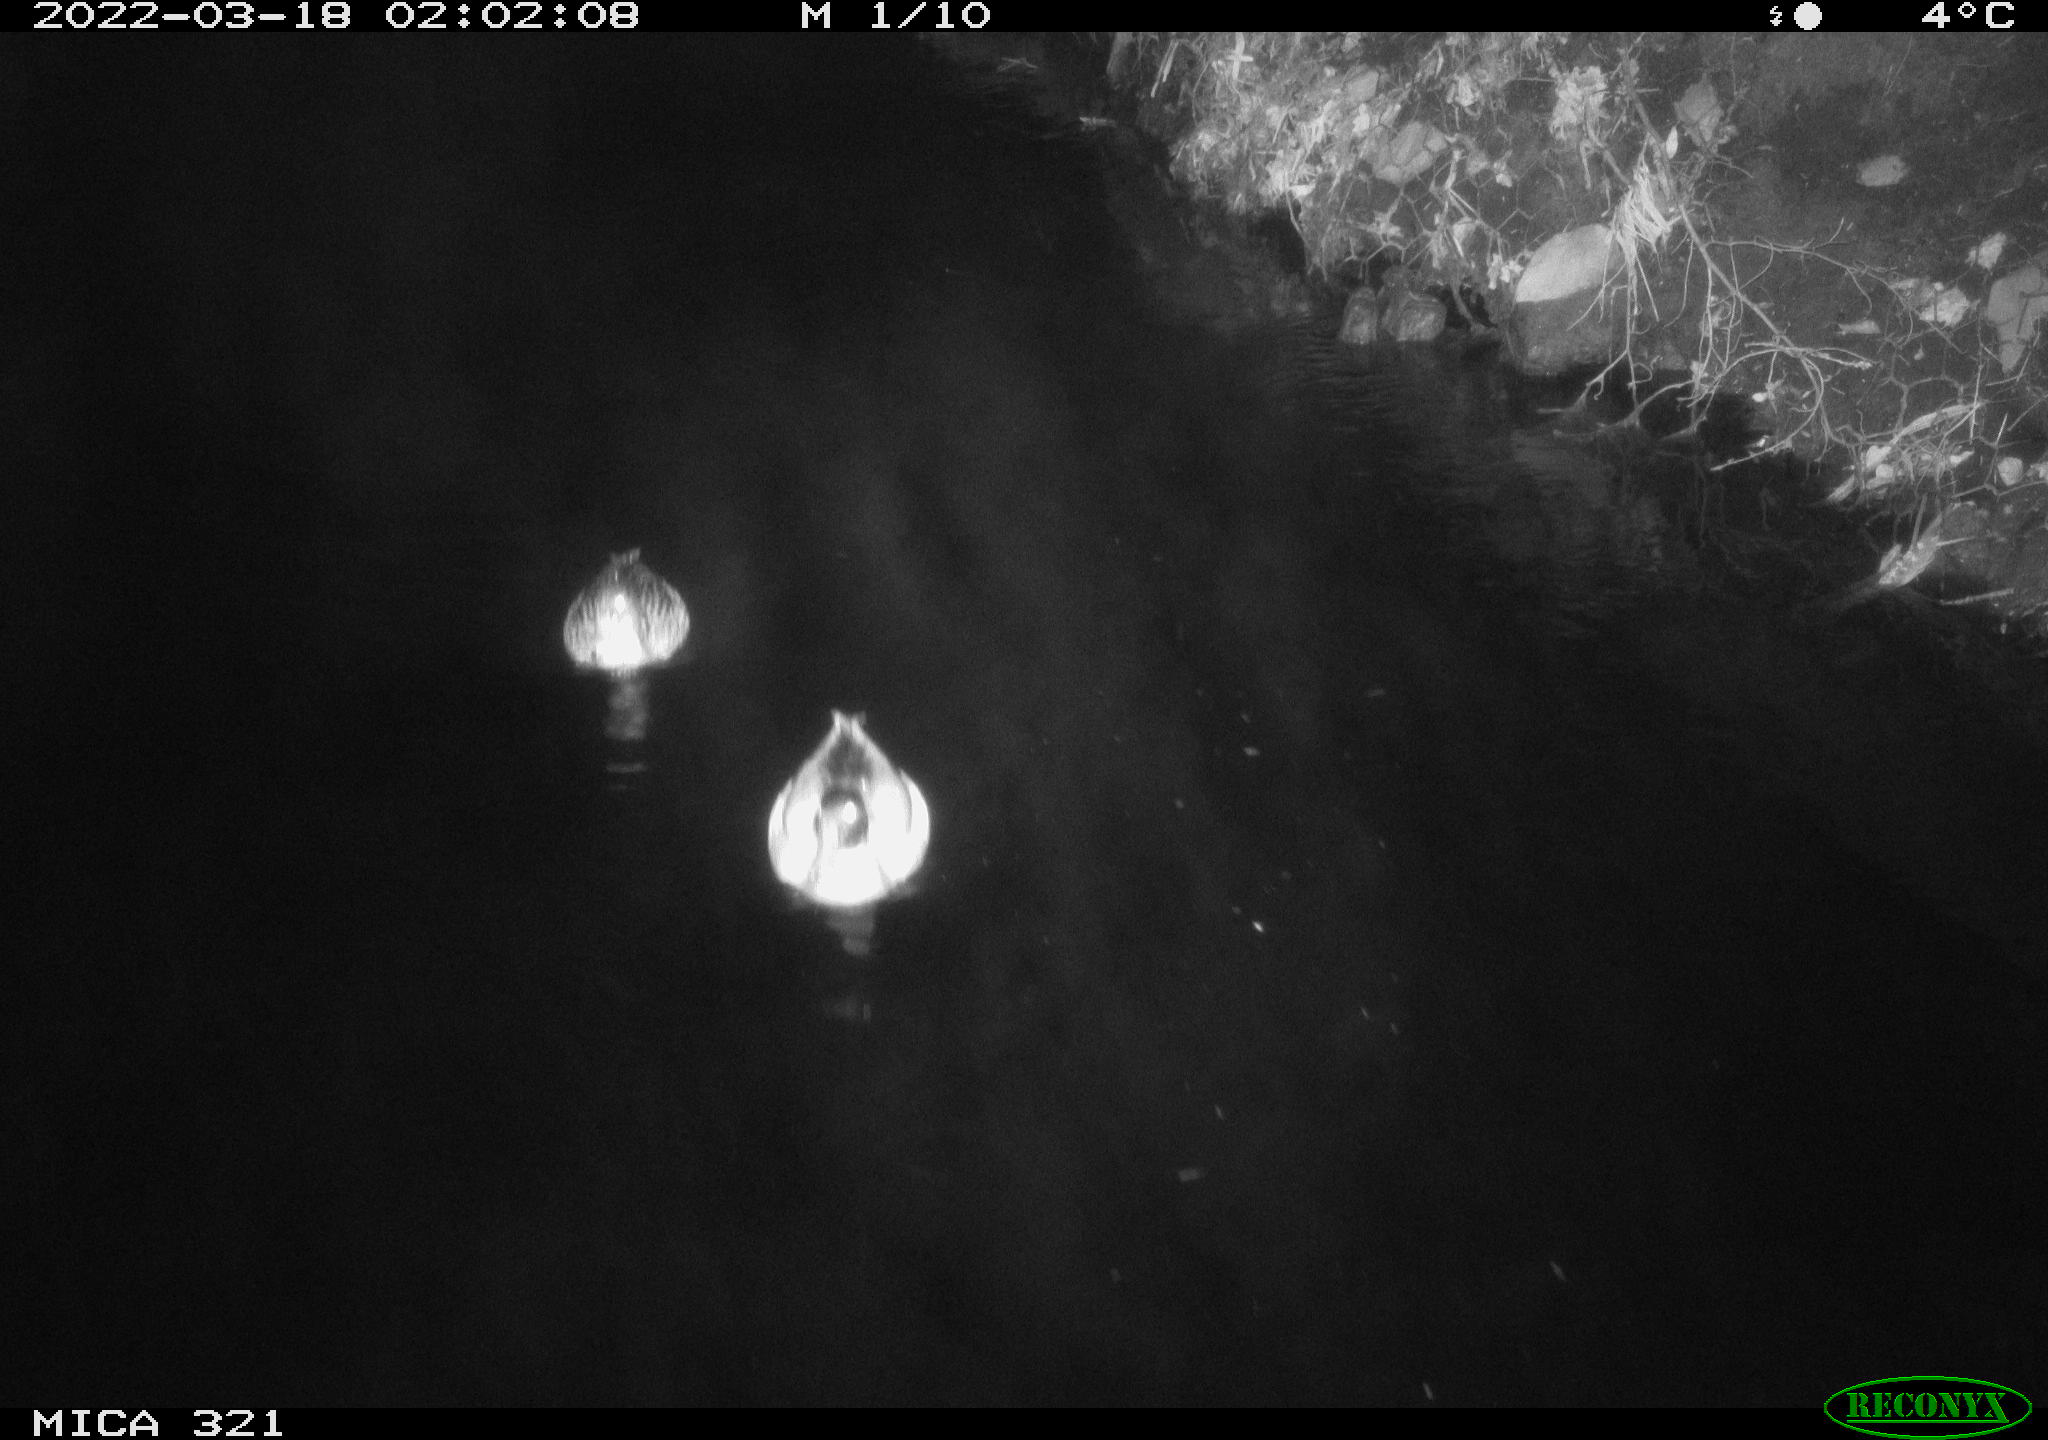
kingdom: Animalia
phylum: Chordata
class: Aves
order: Anseriformes
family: Anatidae
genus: Anas
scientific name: Anas platyrhynchos
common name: Mallard
